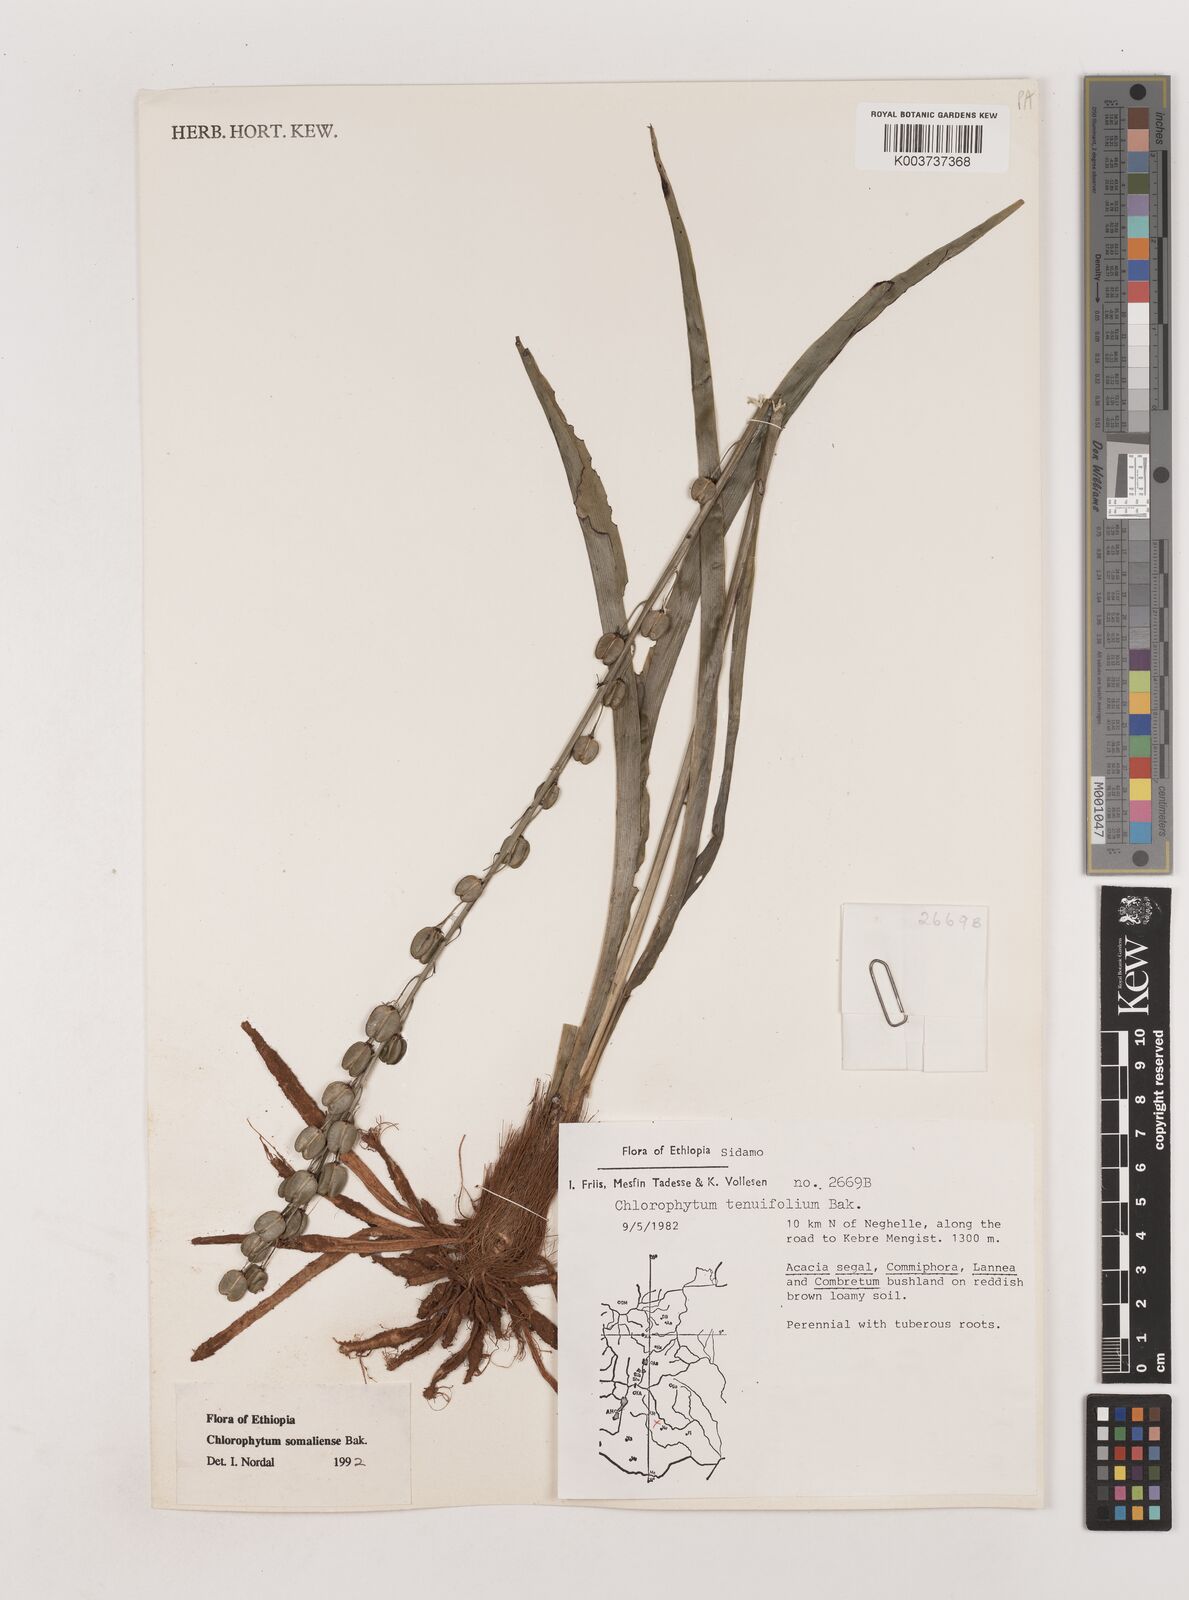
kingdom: Plantae
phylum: Tracheophyta
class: Liliopsida
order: Asparagales
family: Asparagaceae
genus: Chlorophytum
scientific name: Chlorophytum somaliense
